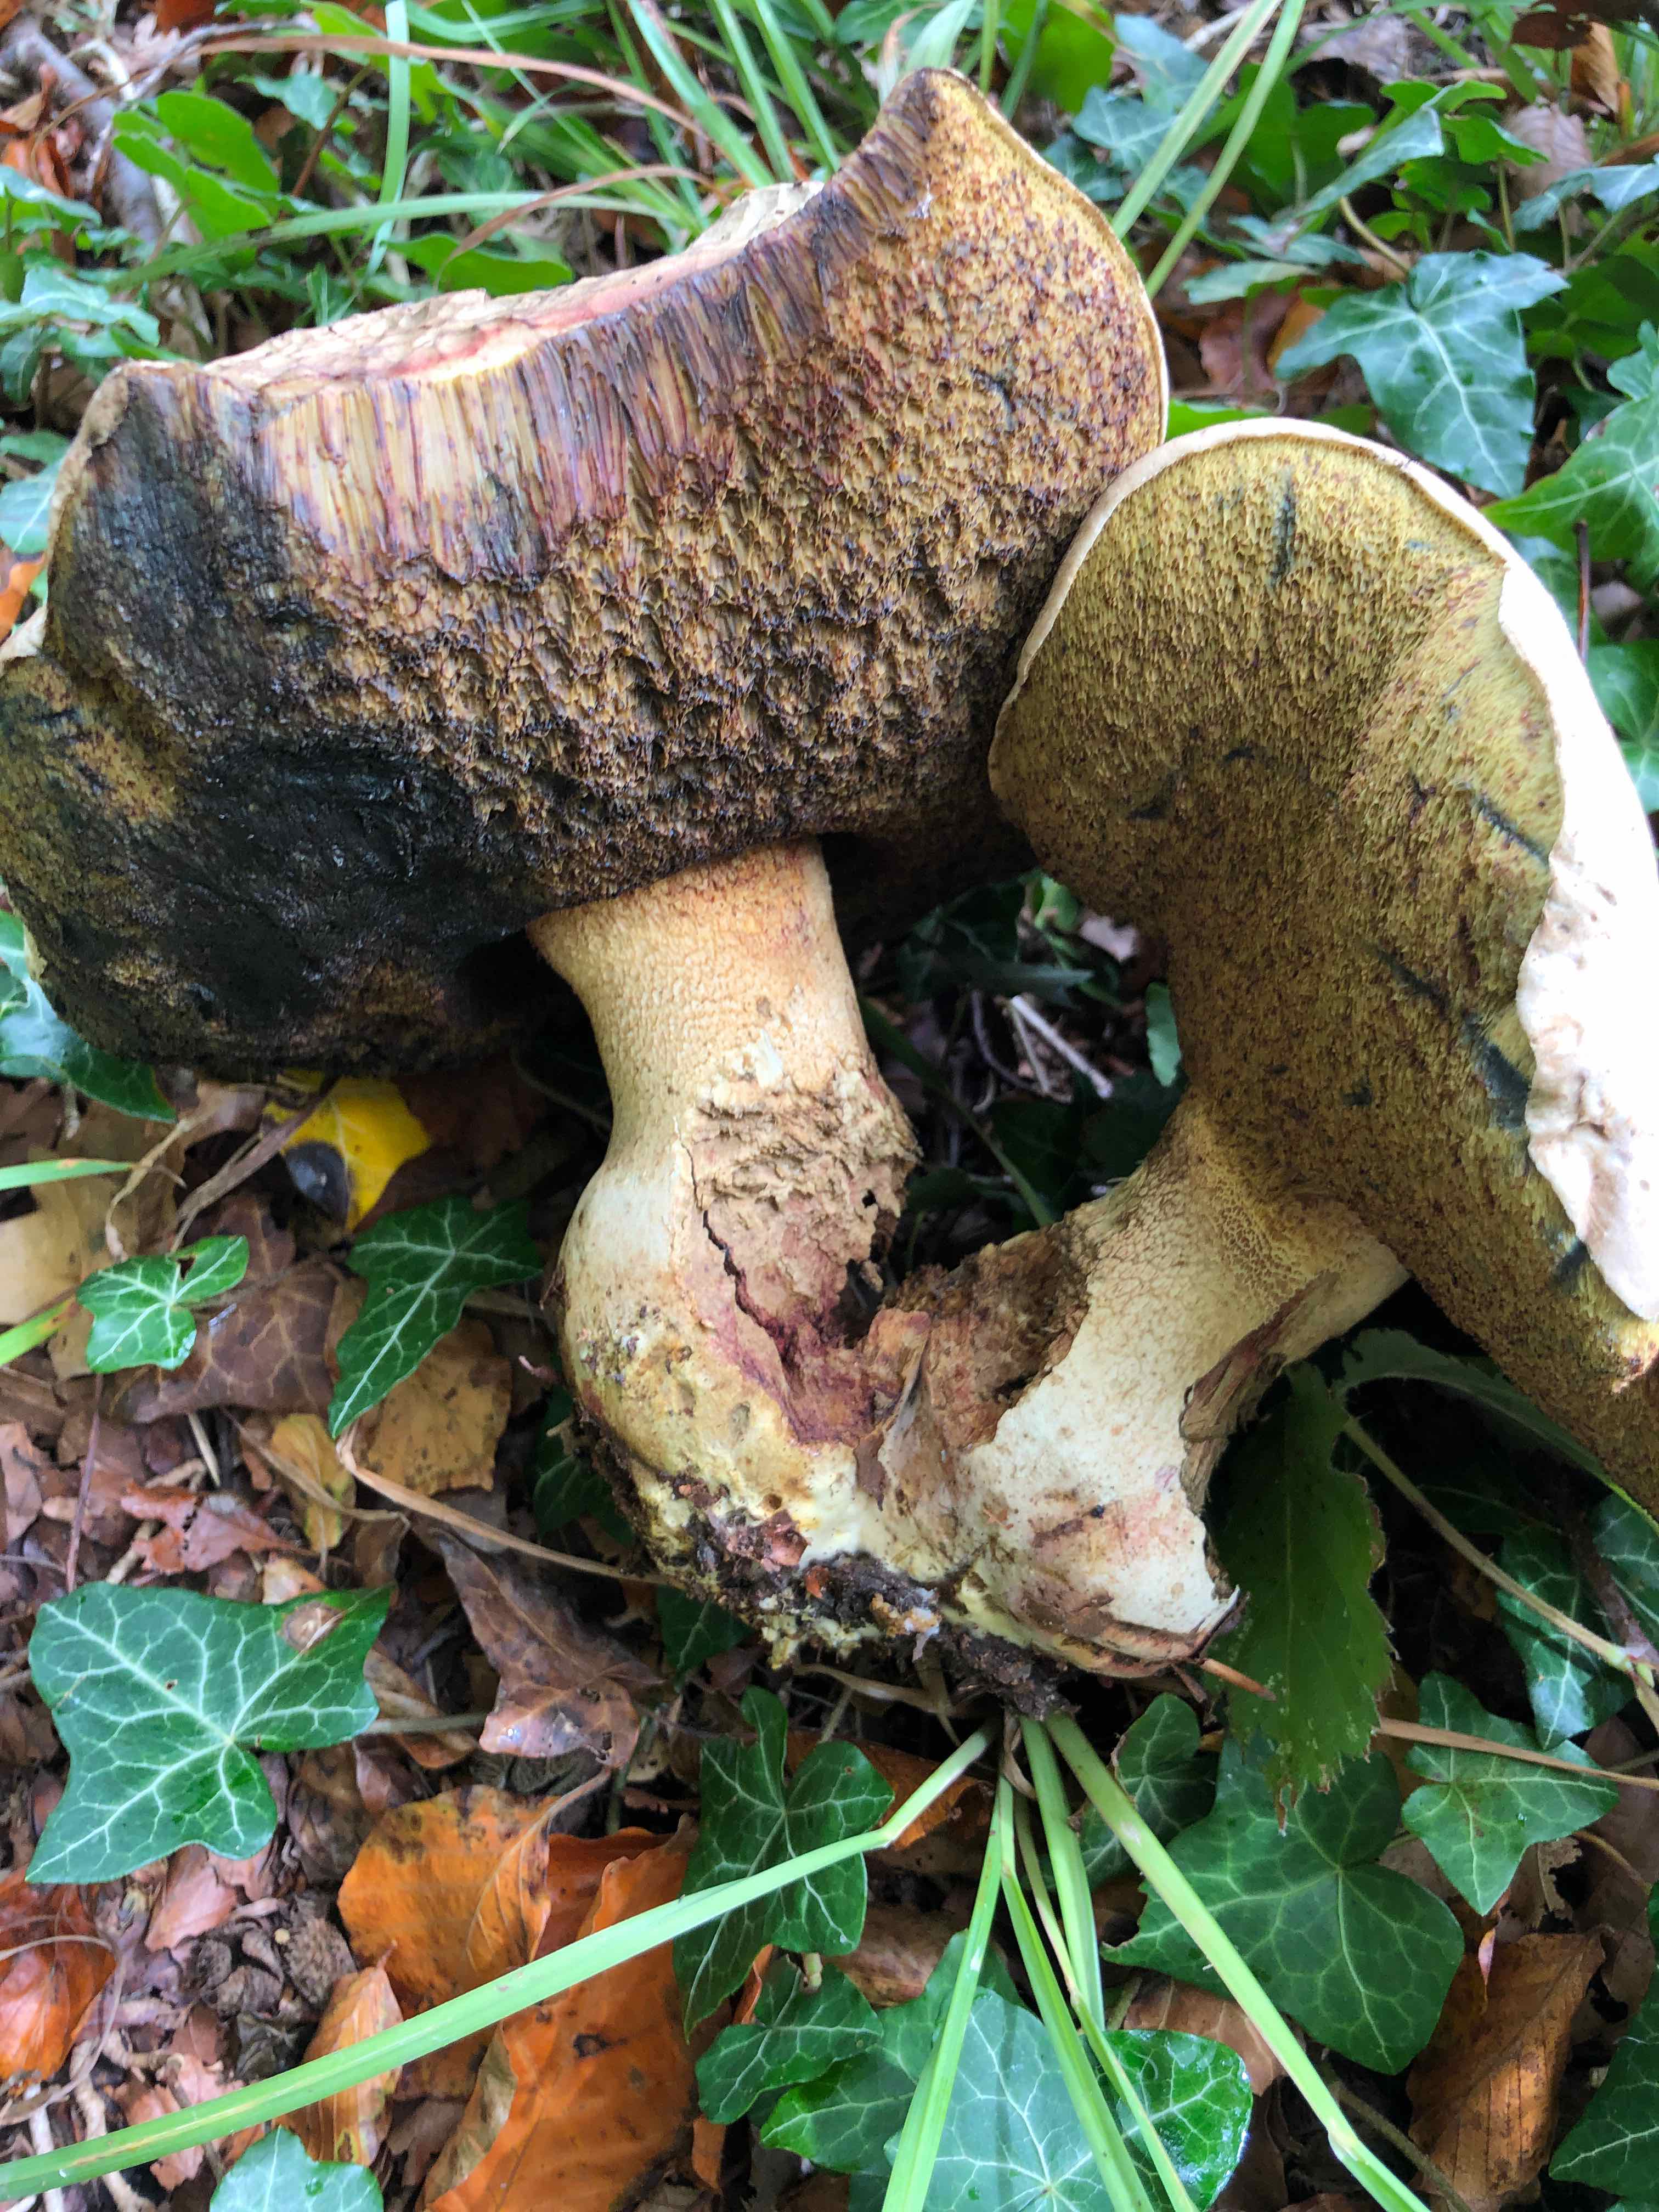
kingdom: Fungi
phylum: Basidiomycota
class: Agaricomycetes
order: Boletales
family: Boletaceae
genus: Caloboletus
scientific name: Caloboletus radicans
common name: rod-rørhat
